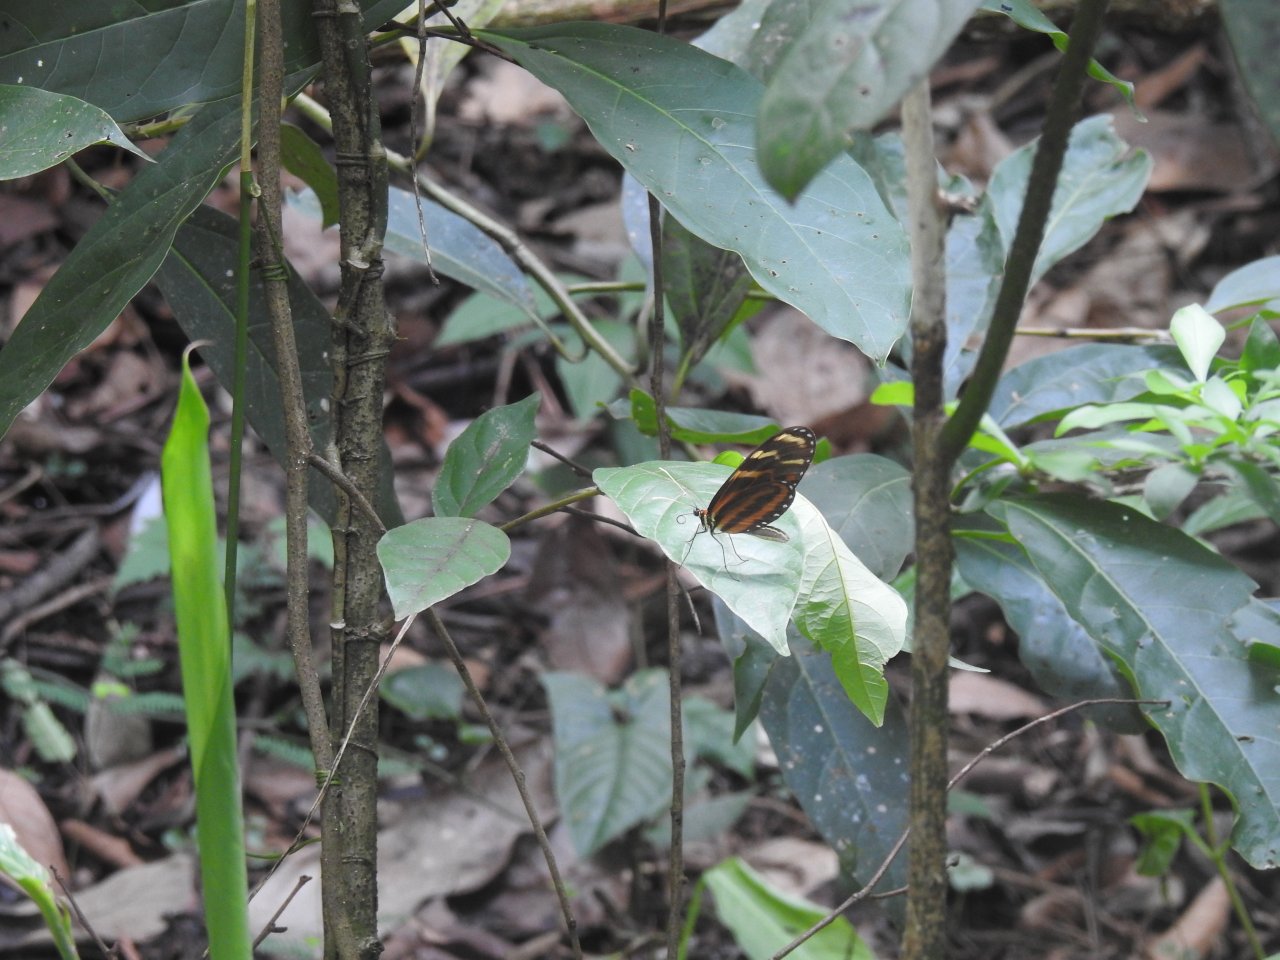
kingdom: Animalia
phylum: Arthropoda
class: Insecta
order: Lepidoptera
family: Nymphalidae
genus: Mechanitis
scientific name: Mechanitis menapis
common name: Menapis Tigerwing
